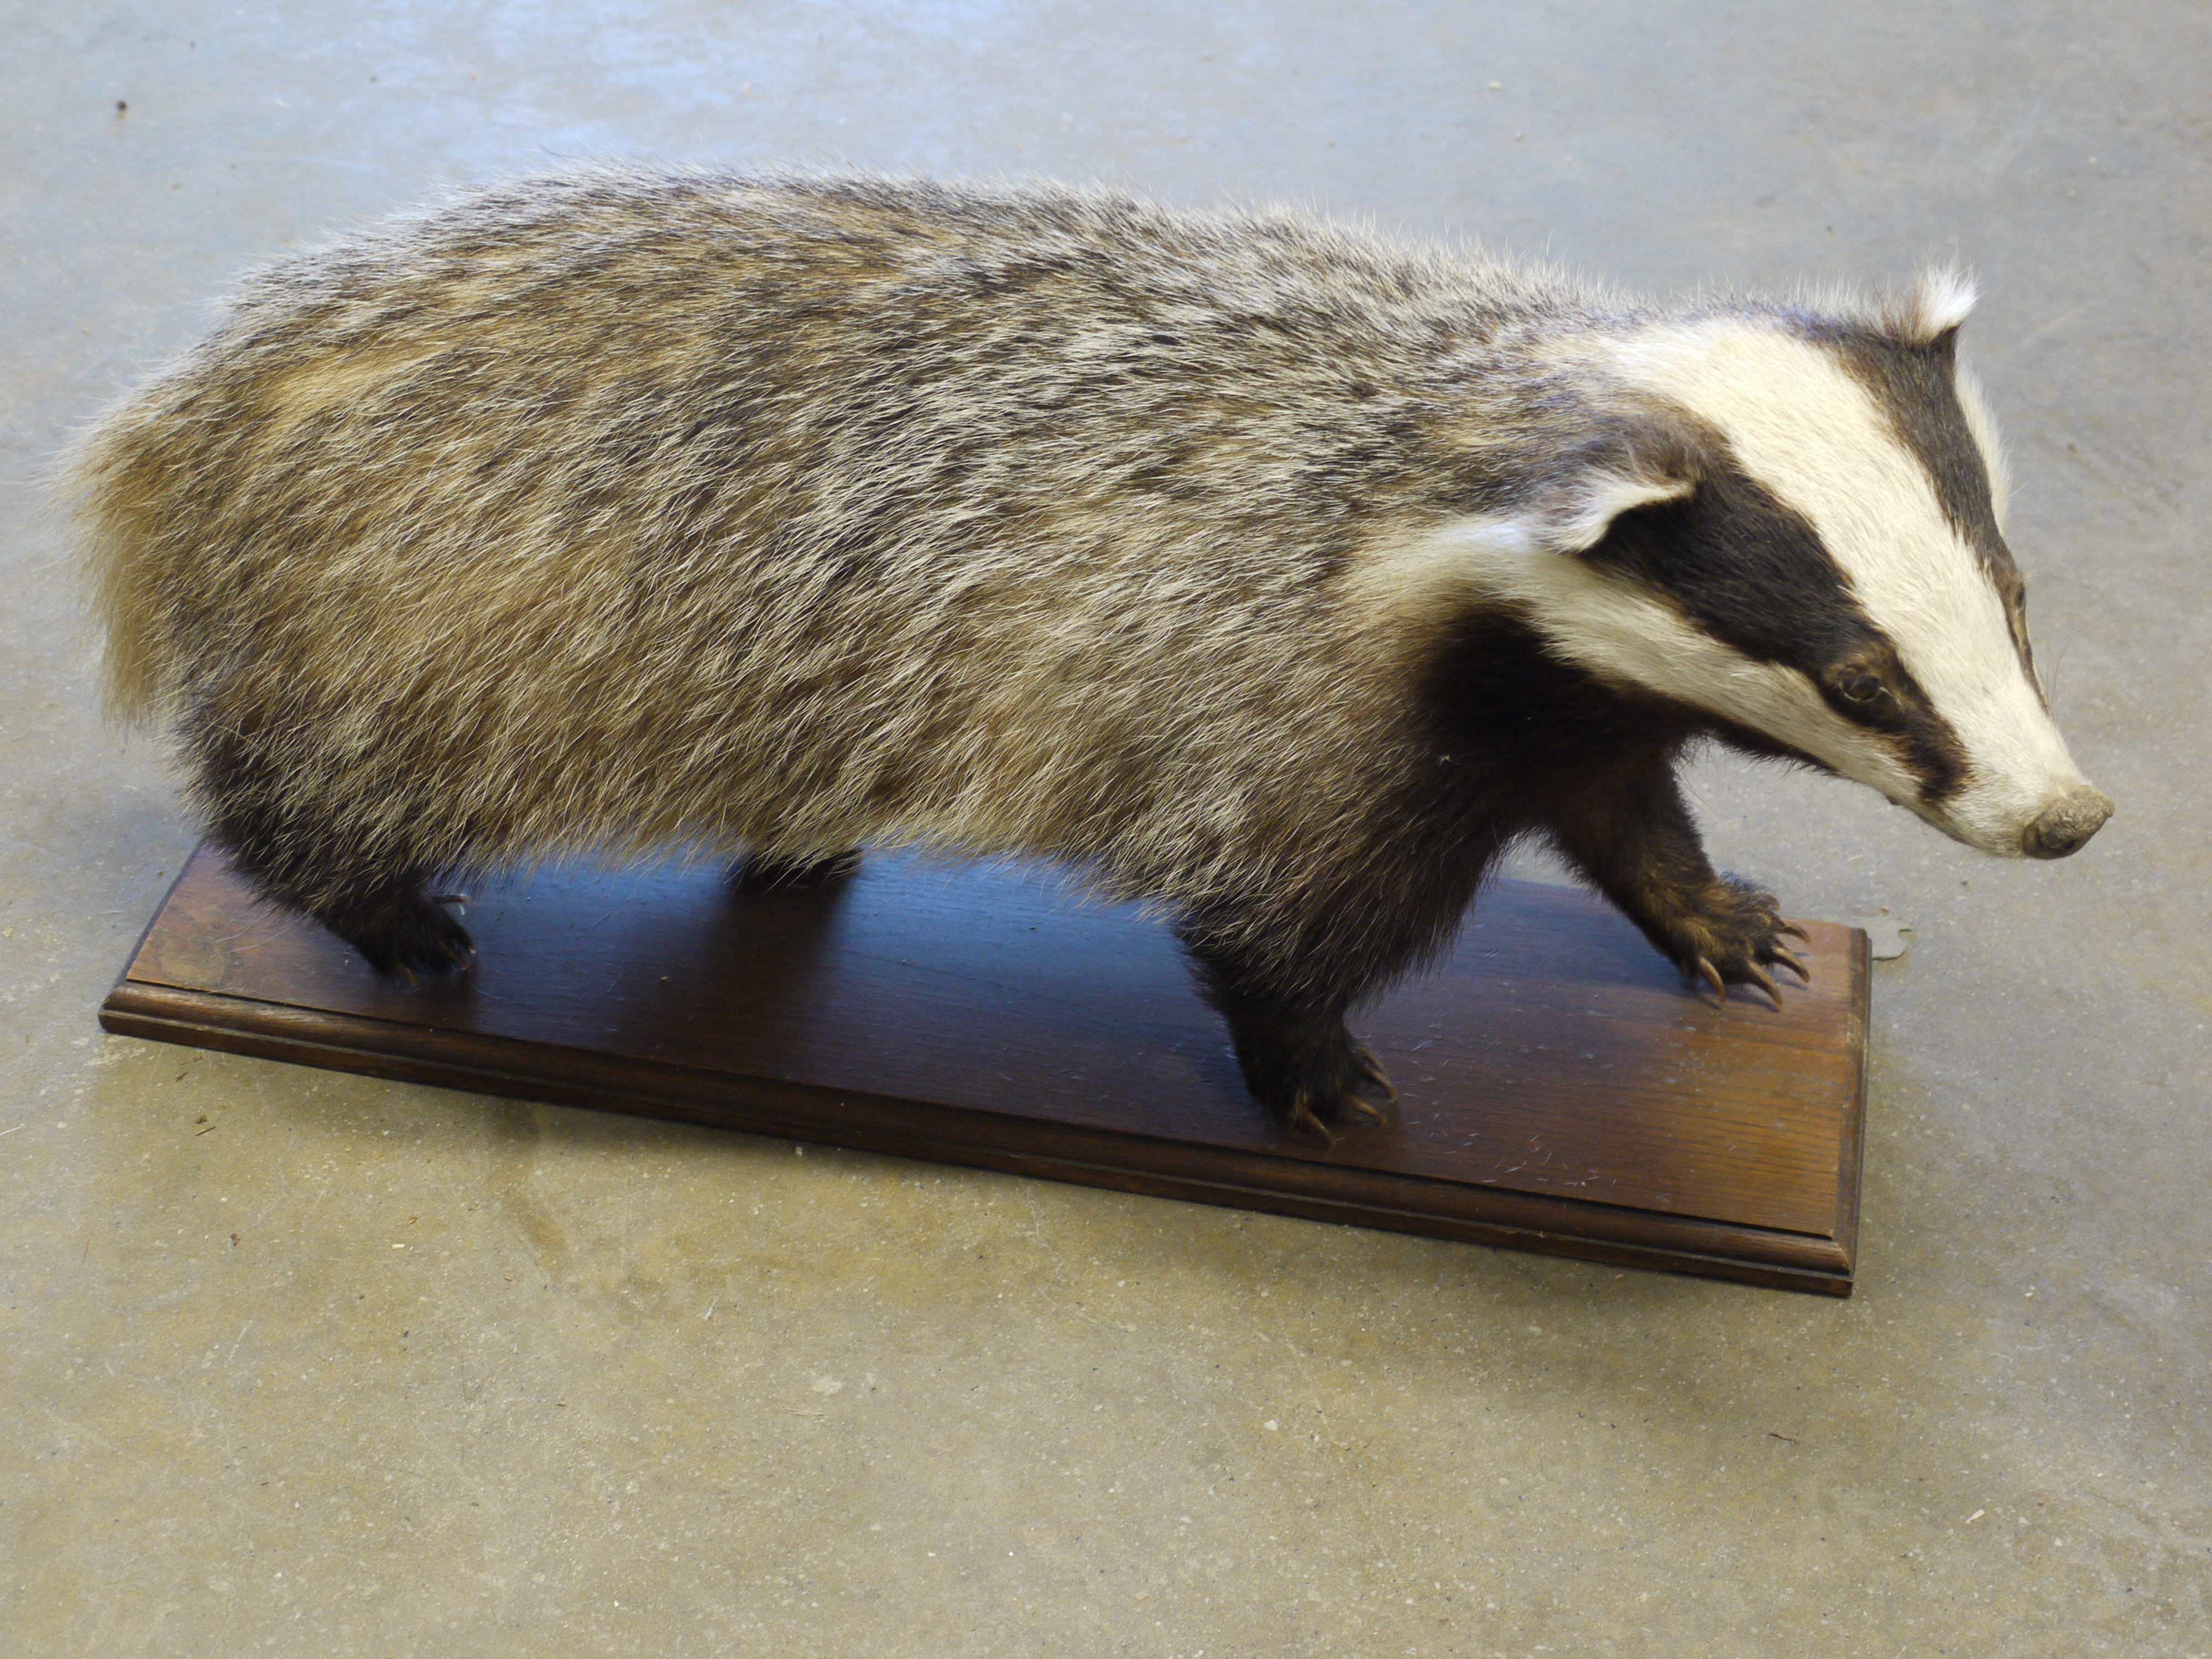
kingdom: Animalia
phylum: Chordata
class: Mammalia
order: Carnivora
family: Mustelidae
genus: Meles
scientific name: Meles meles
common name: Eurasian badger
